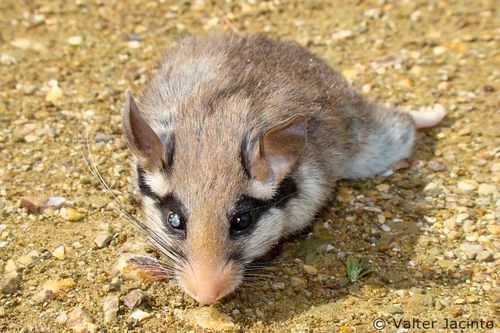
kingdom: Animalia
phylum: Chordata
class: Mammalia
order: Rodentia
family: Gliridae
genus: Eliomys
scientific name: Eliomys quercinus
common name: Garden dormouse
